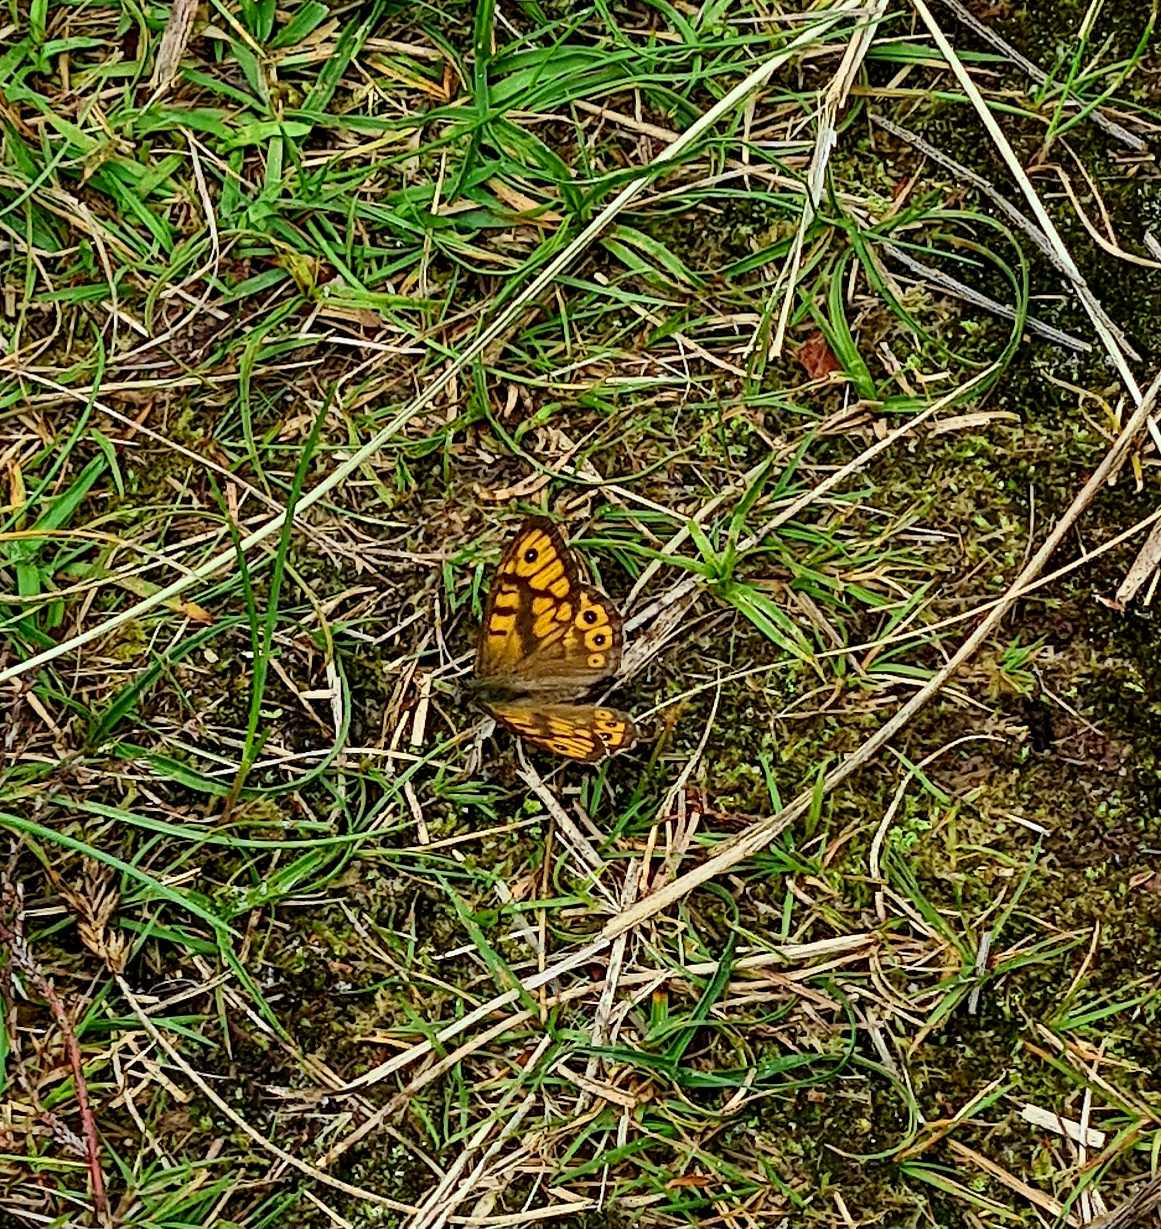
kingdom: Animalia
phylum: Arthropoda
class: Insecta
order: Lepidoptera
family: Nymphalidae
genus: Pararge
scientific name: Pararge Lasiommata megera
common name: Vejrandøje
